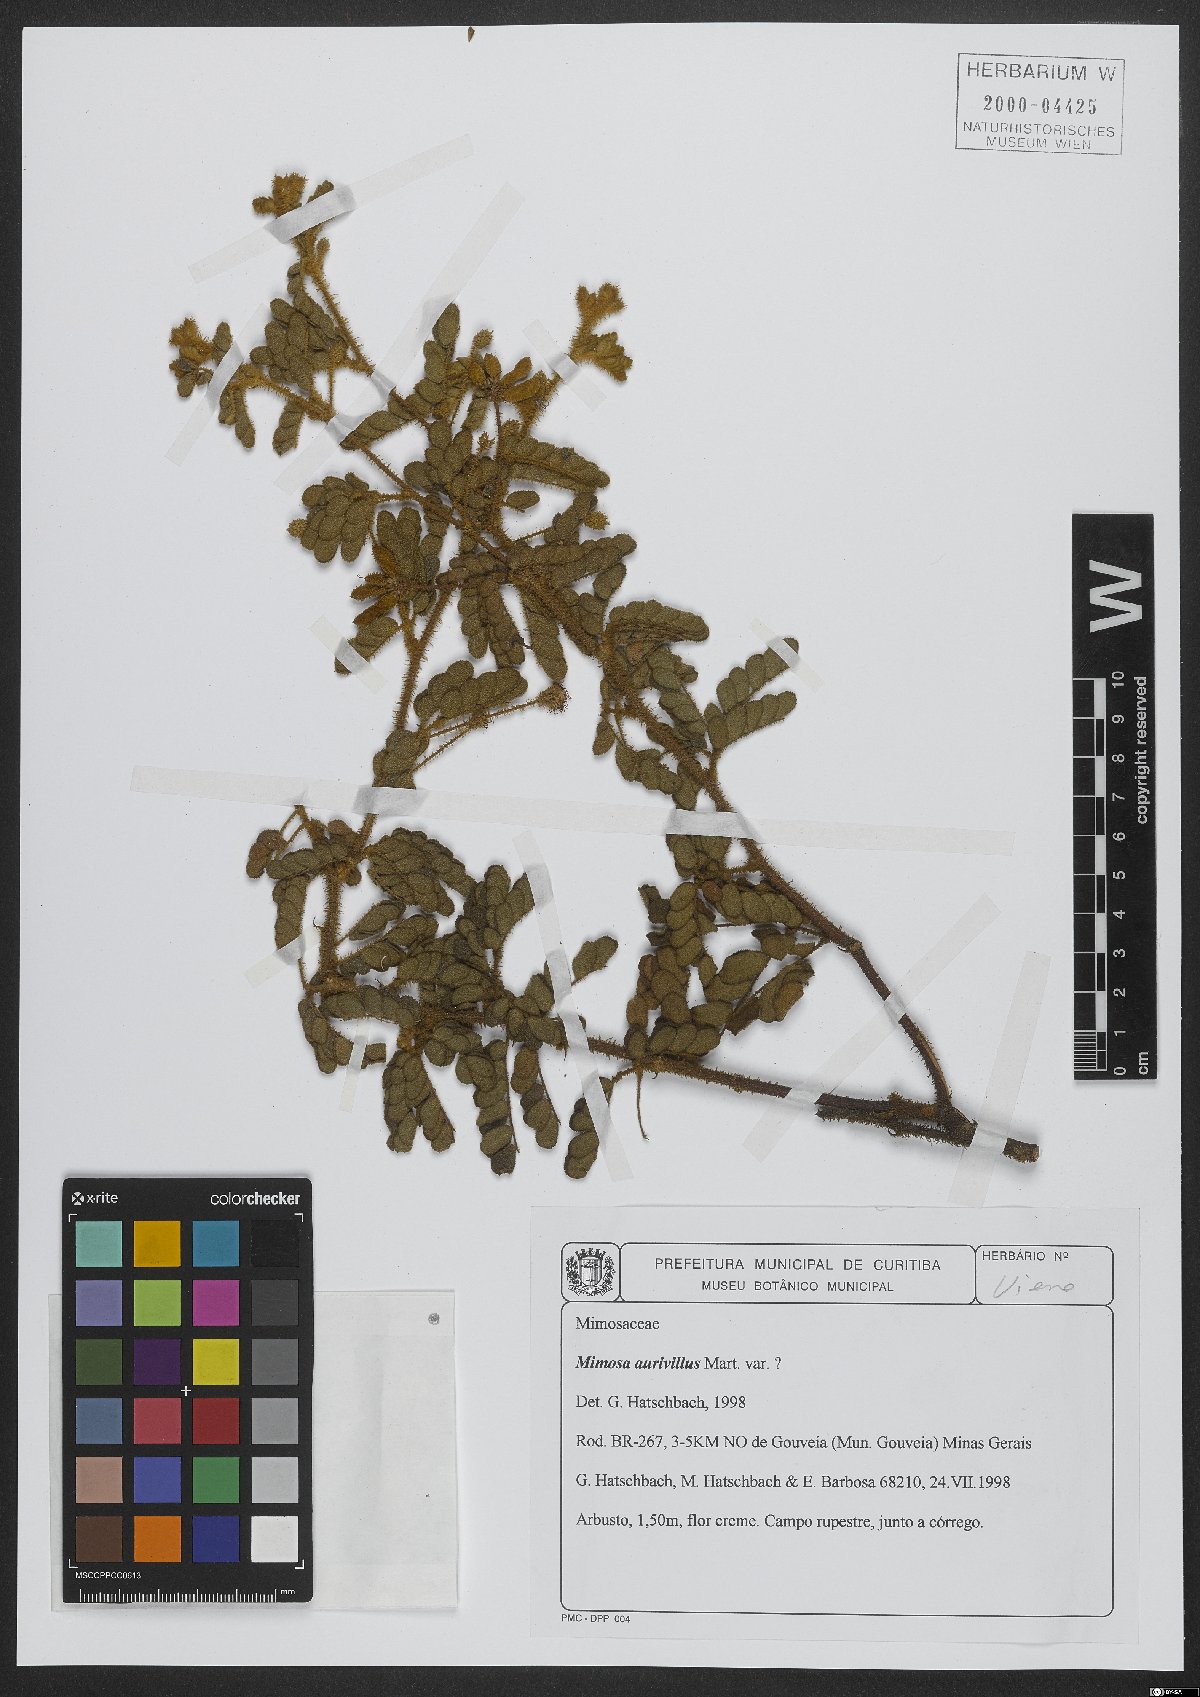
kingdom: Plantae
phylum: Tracheophyta
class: Magnoliopsida
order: Fabales
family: Fabaceae
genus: Mimosa
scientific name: Mimosa aurivillus
